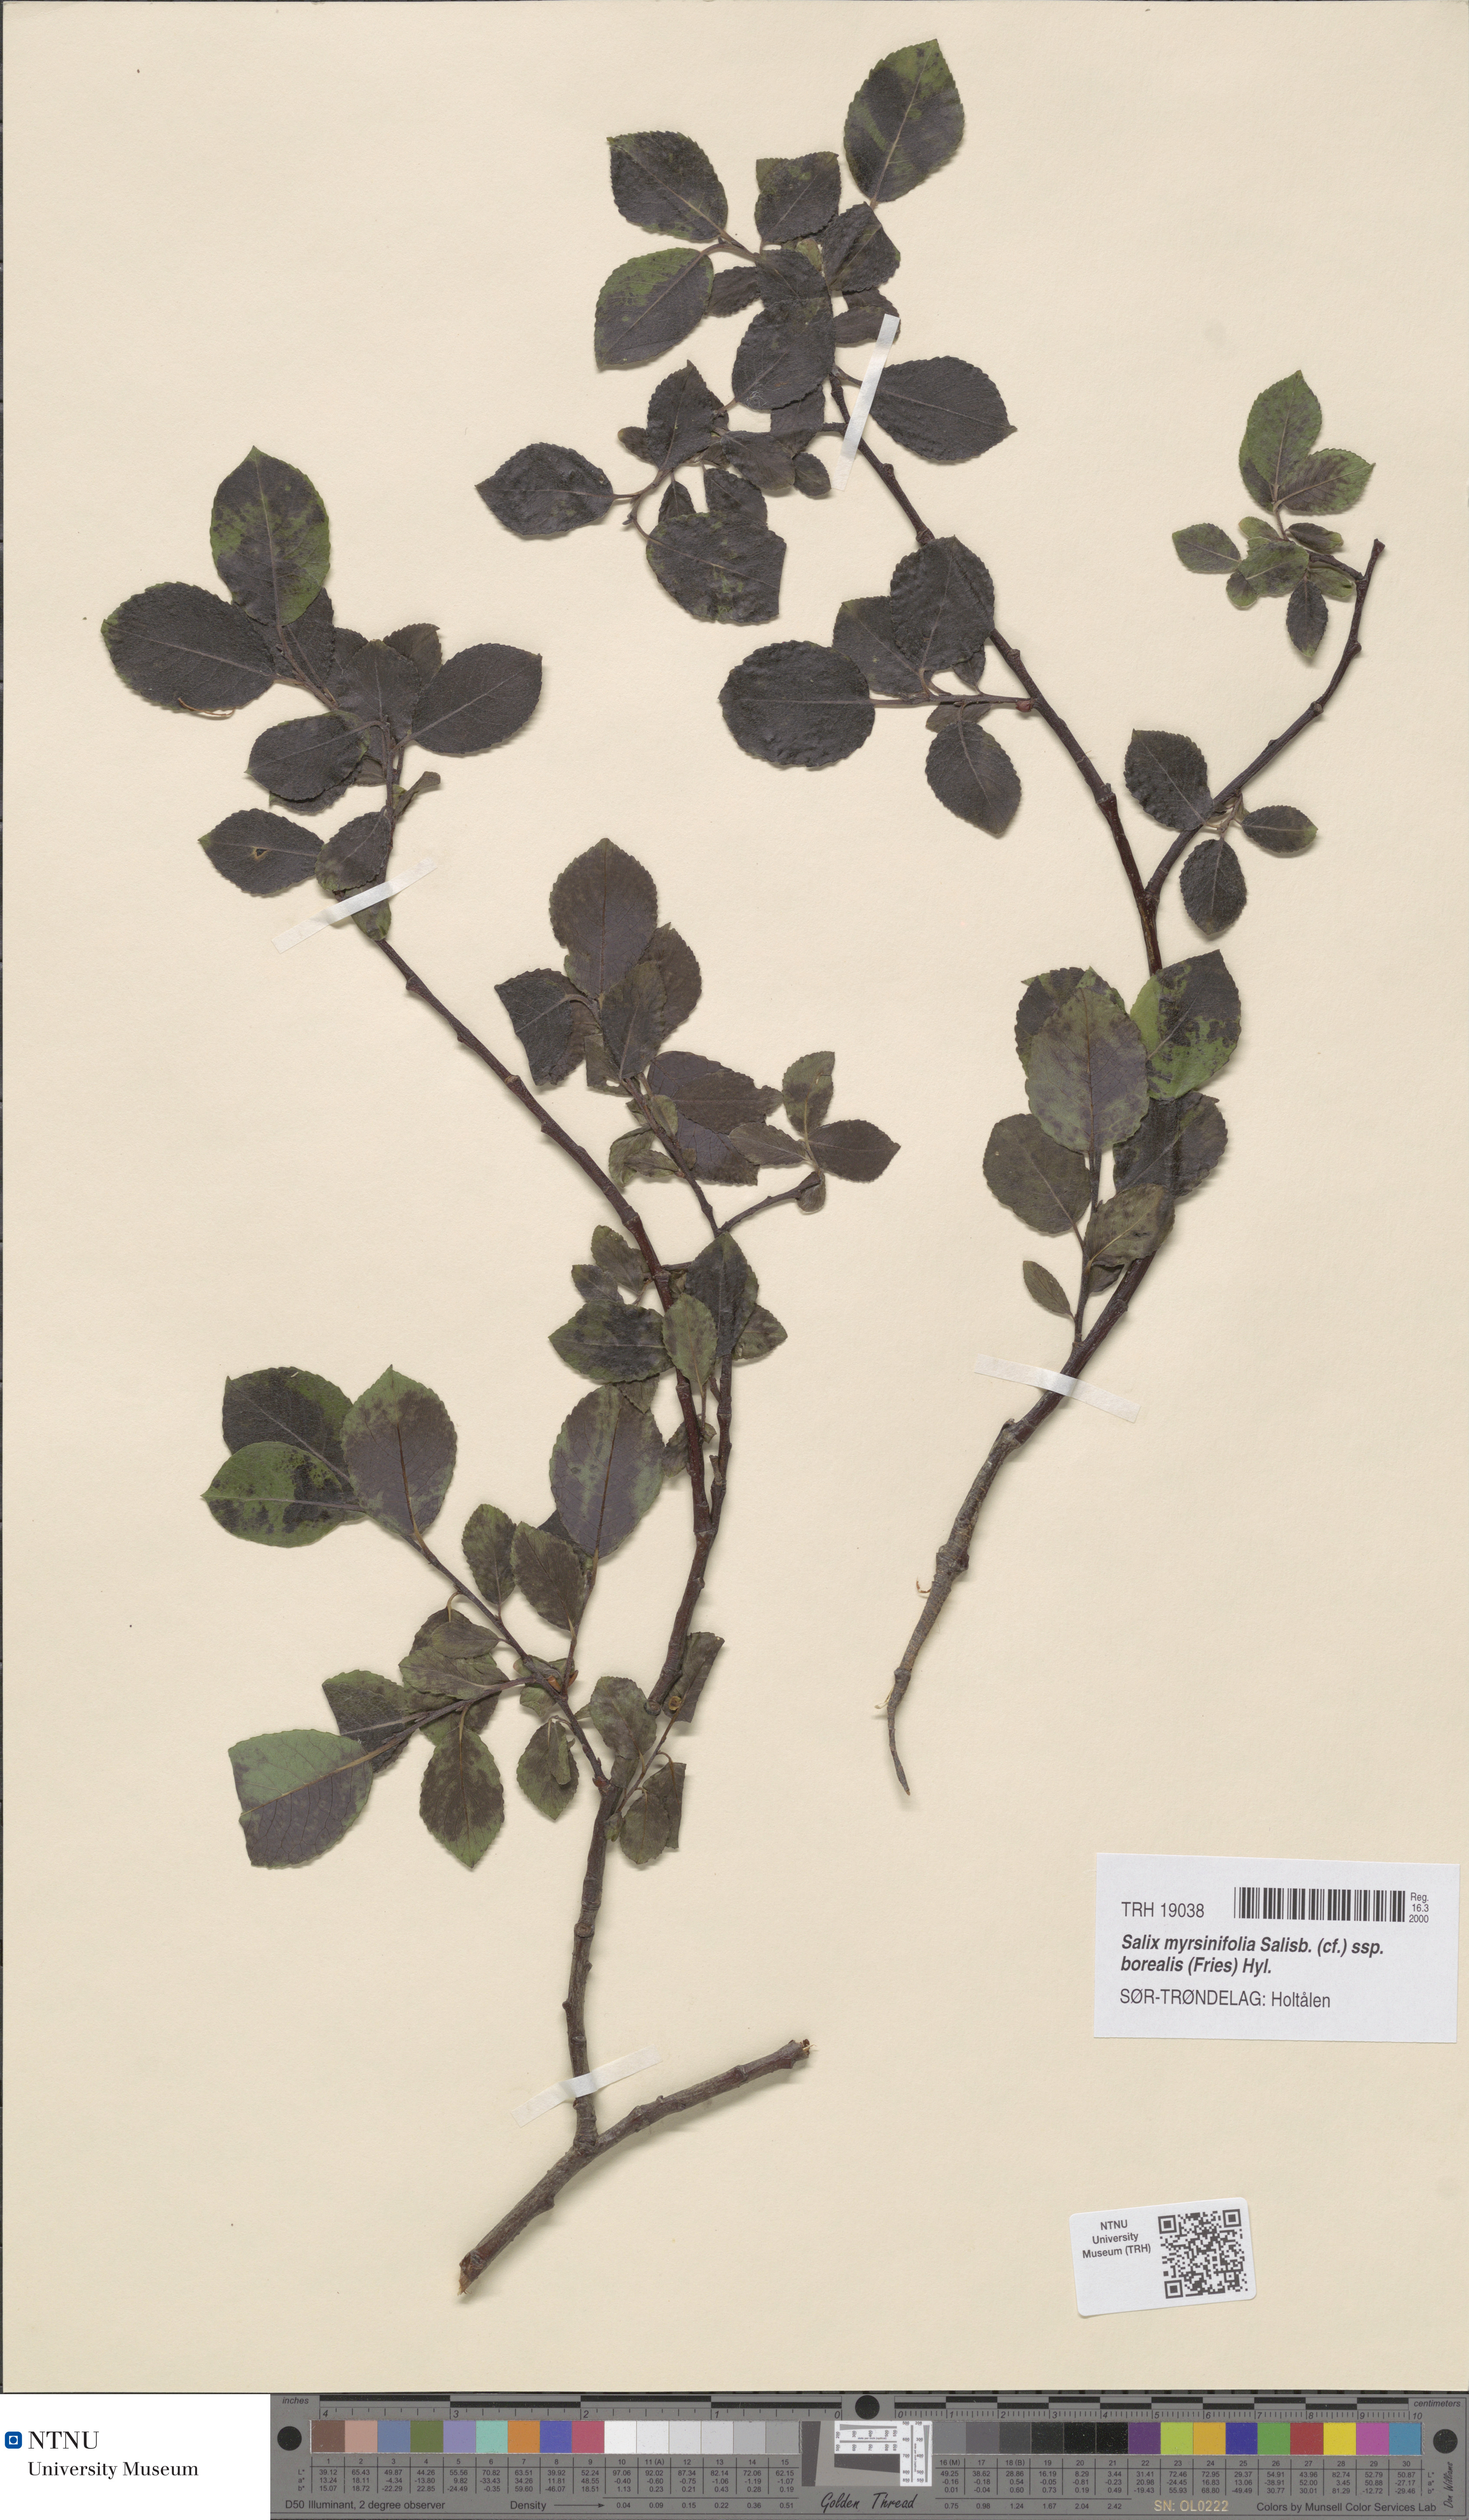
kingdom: Plantae
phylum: Tracheophyta
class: Magnoliopsida
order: Malpighiales
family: Salicaceae
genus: Salix
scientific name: Salix myrsinifolia
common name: Dark-leaved willow
